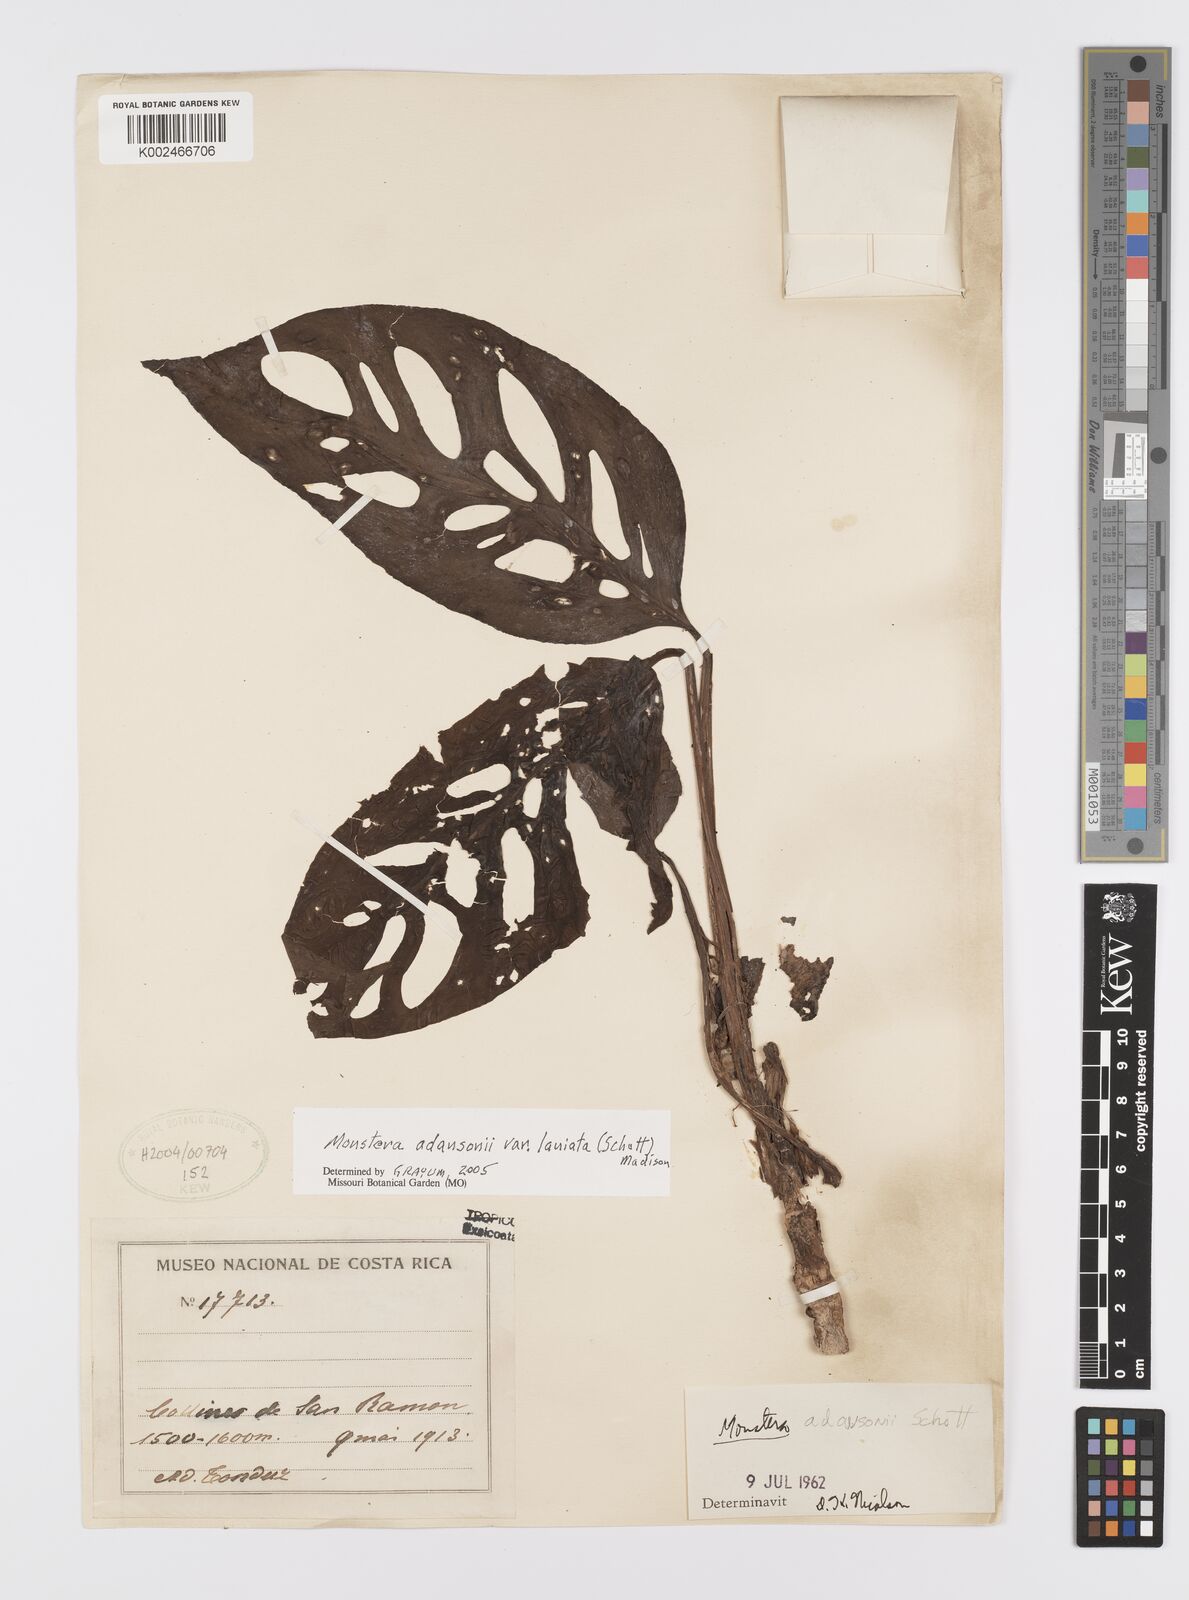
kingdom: Plantae
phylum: Tracheophyta
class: Liliopsida
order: Alismatales
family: Araceae
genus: Monstera
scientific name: Monstera adansonii
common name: Tarovine
